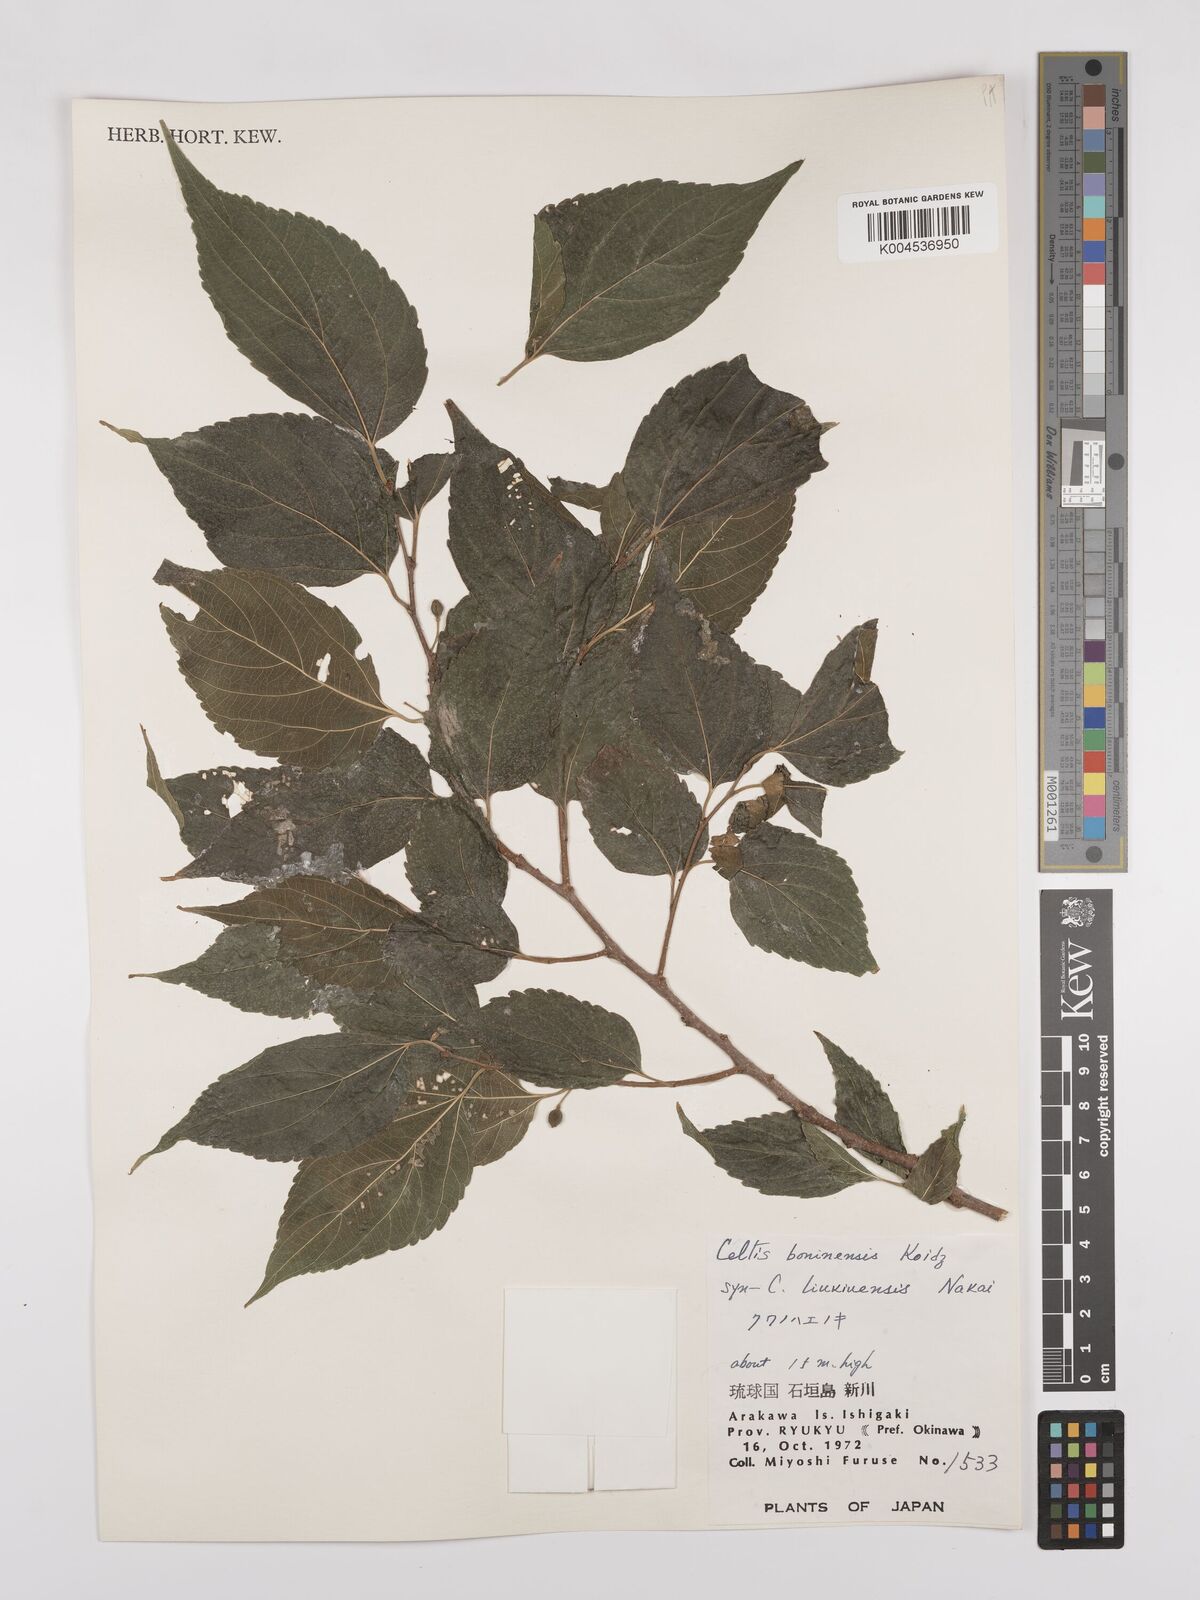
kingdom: Plantae
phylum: Tracheophyta
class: Magnoliopsida
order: Rosales
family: Cannabaceae
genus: Celtis
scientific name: Celtis boninensis
